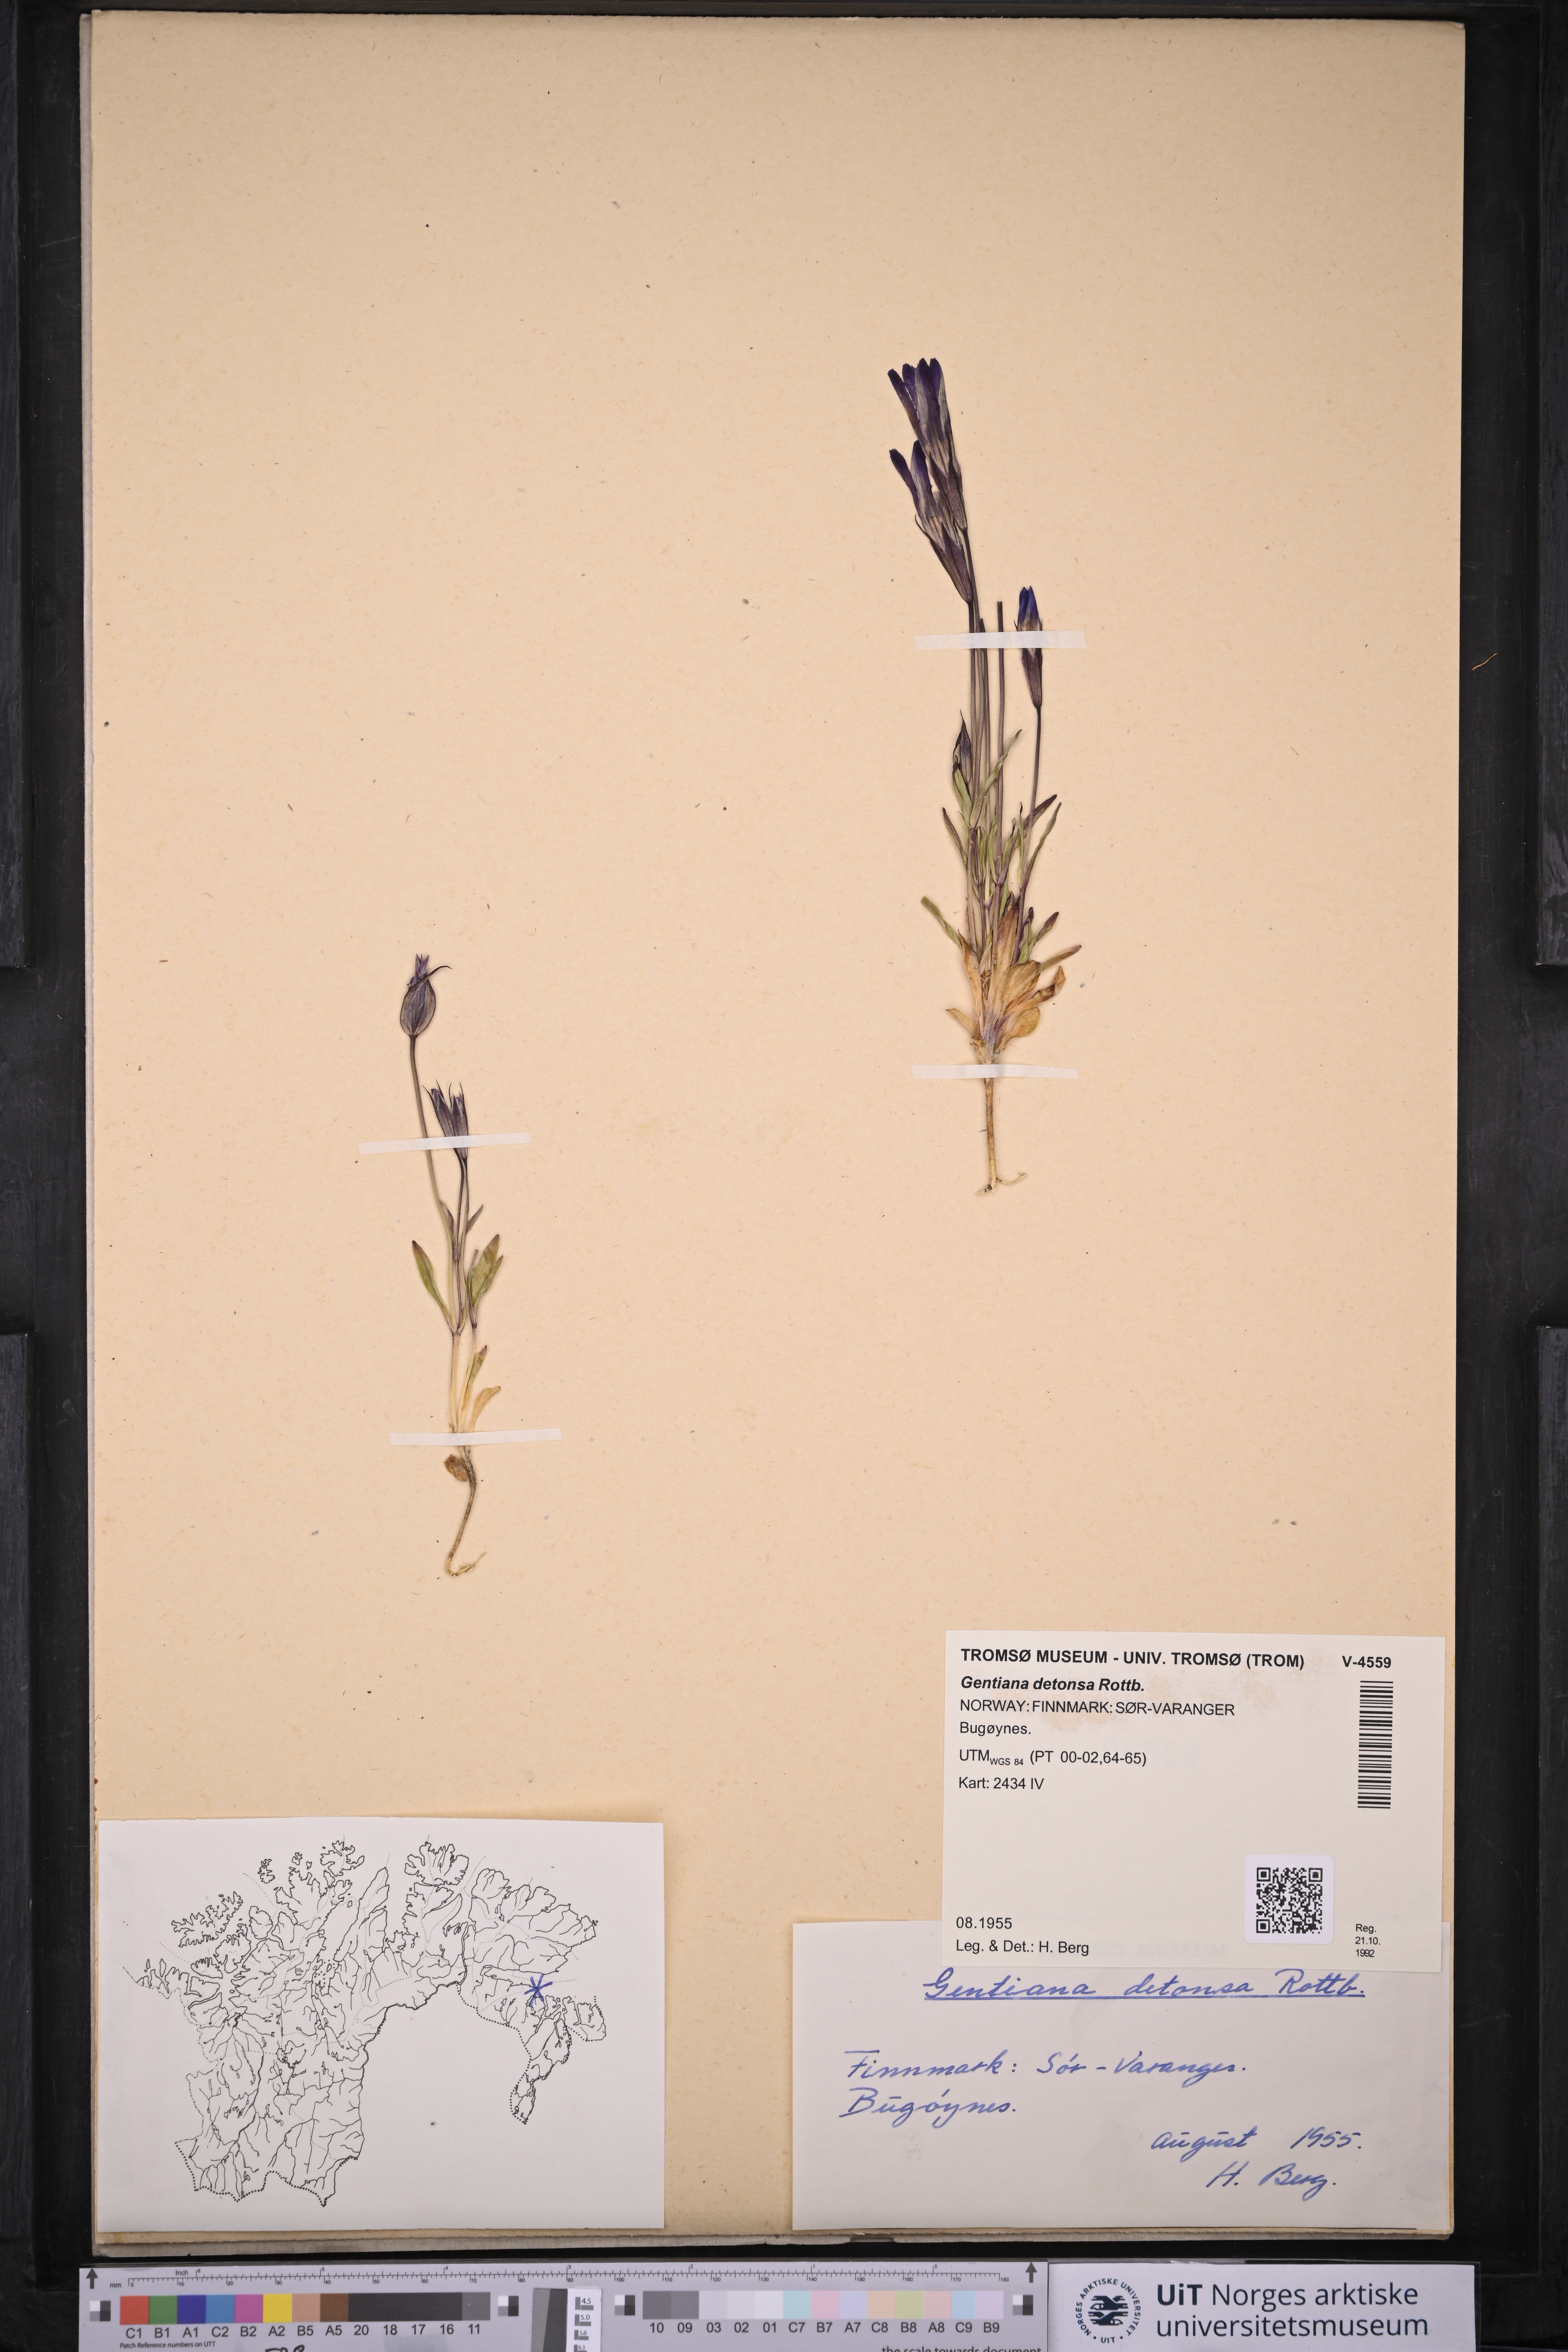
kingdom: Plantae
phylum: Tracheophyta
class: Magnoliopsida
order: Gentianales
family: Gentianaceae
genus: Gentianopsis
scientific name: Gentianopsis detonsa
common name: Fringed-gentian
